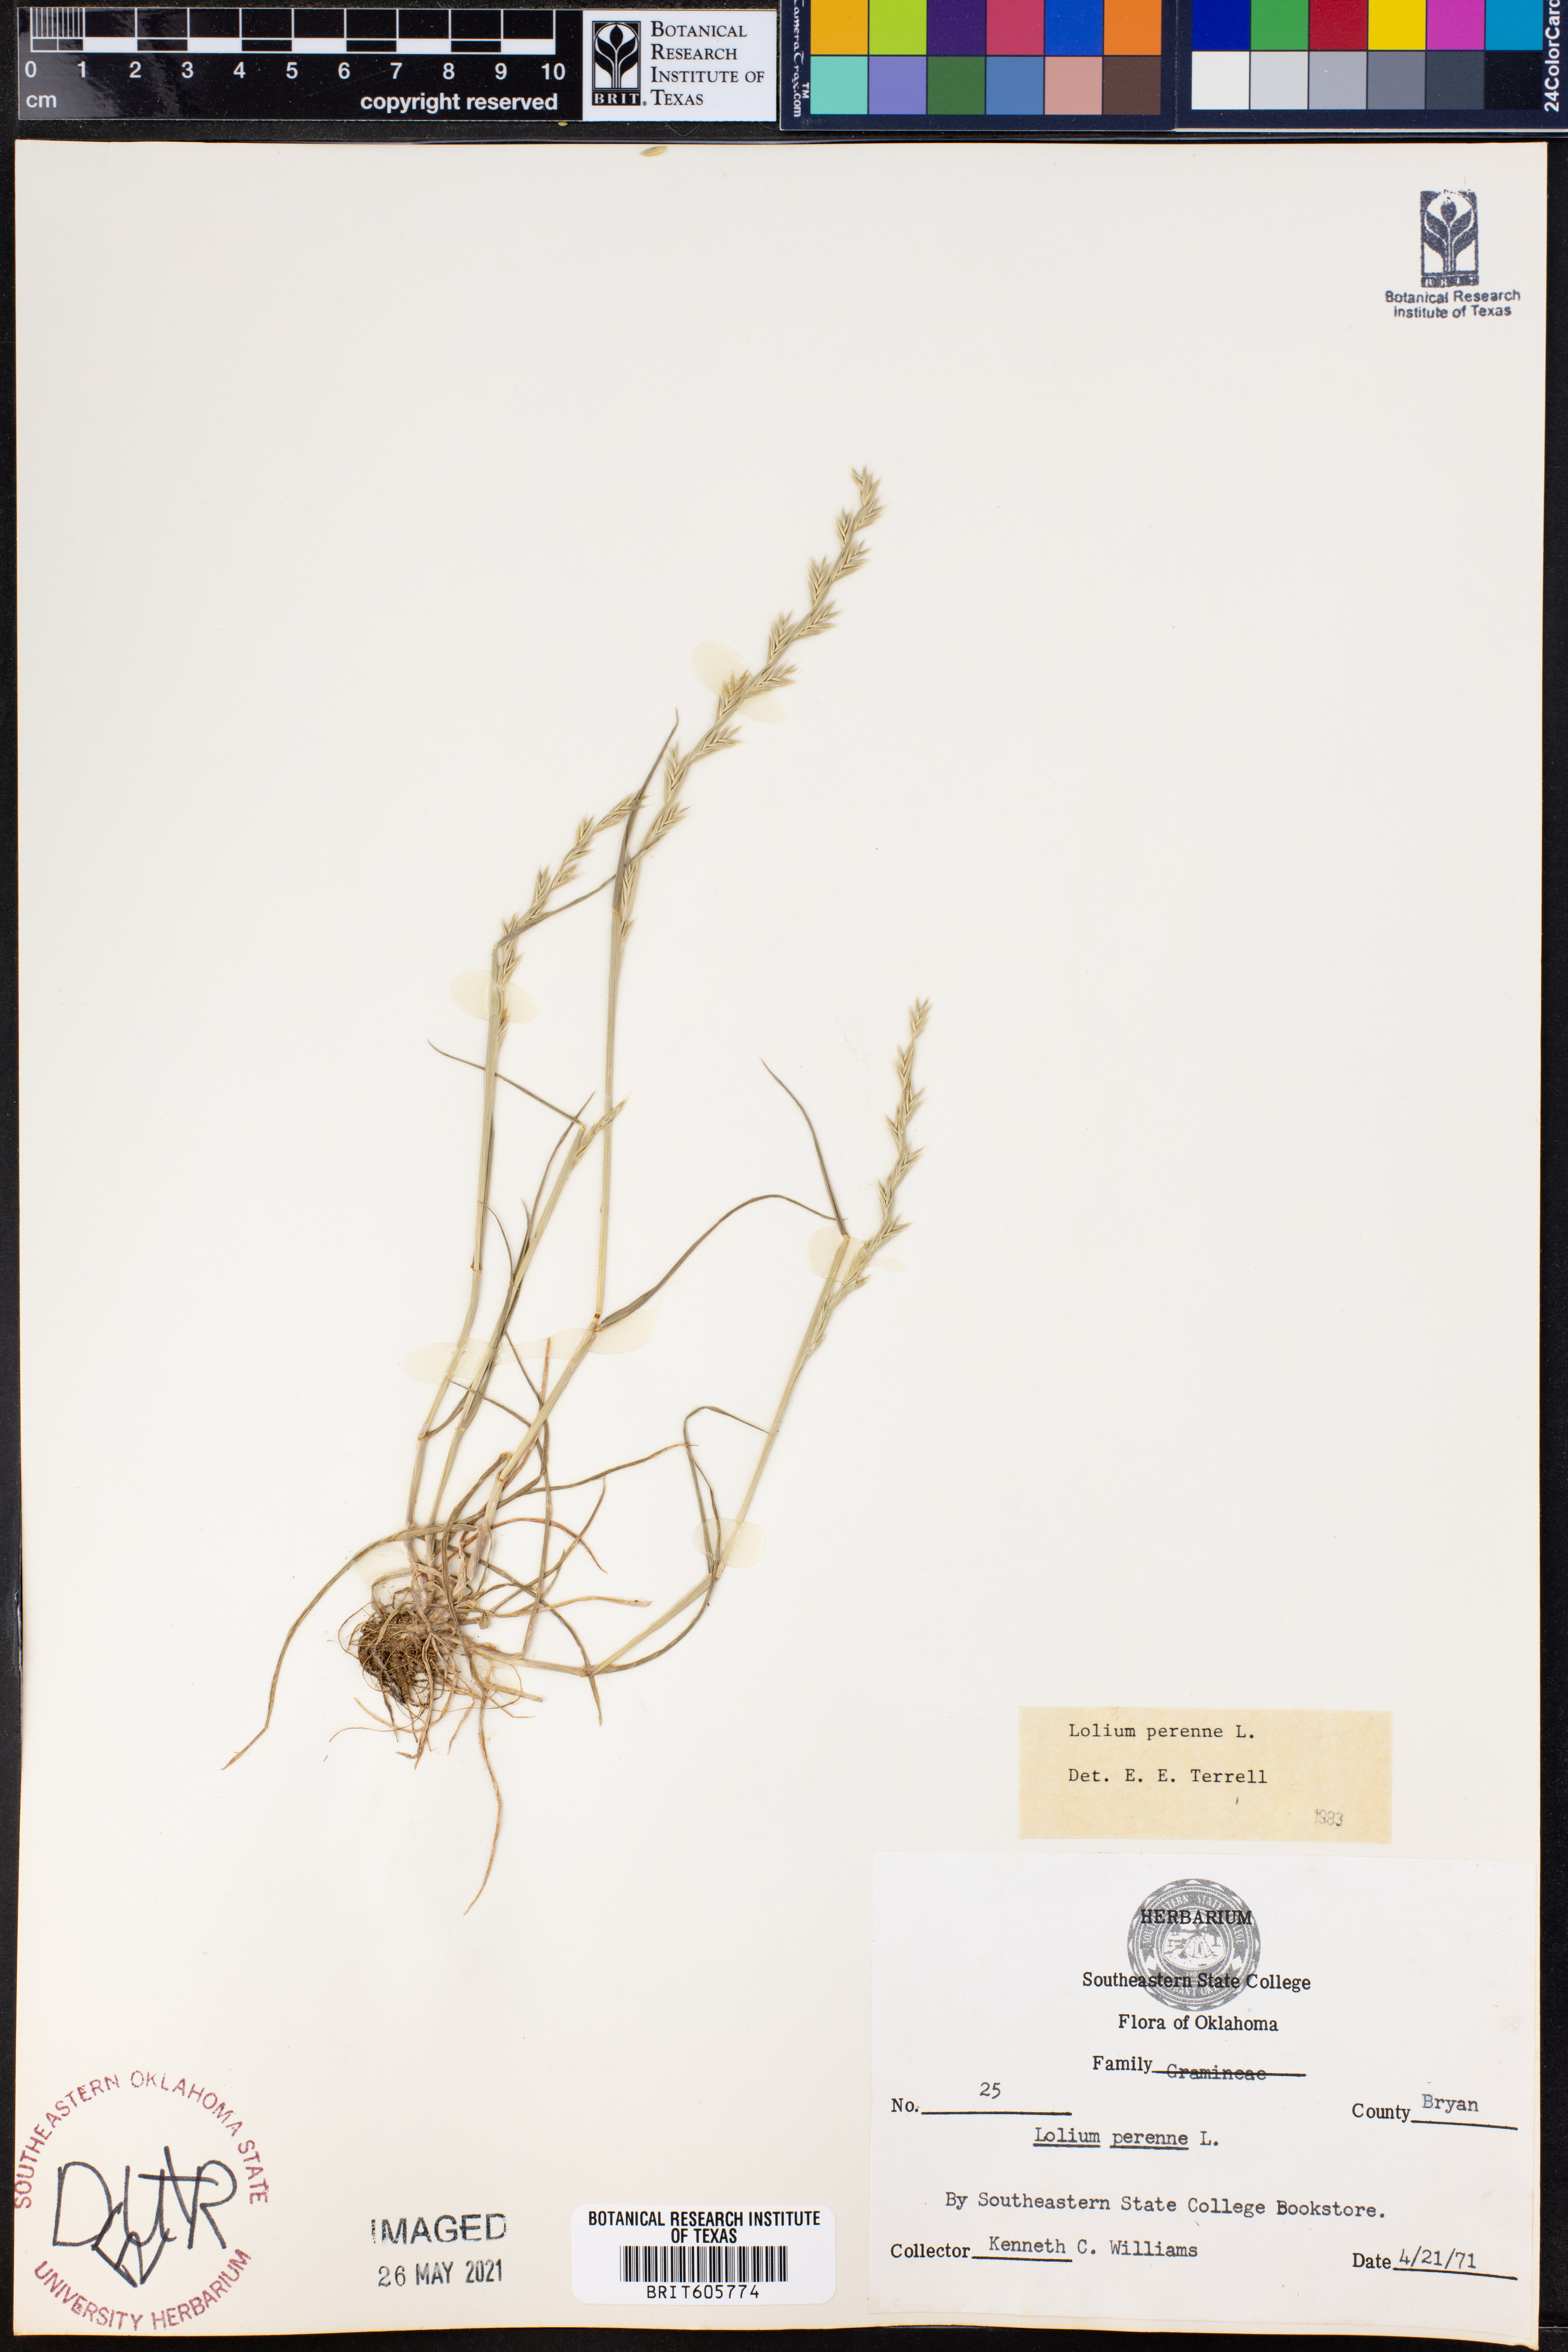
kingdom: Plantae
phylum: Tracheophyta
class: Liliopsida
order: Poales
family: Poaceae
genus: Lolium
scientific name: Lolium perenne
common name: Perennial ryegrass
